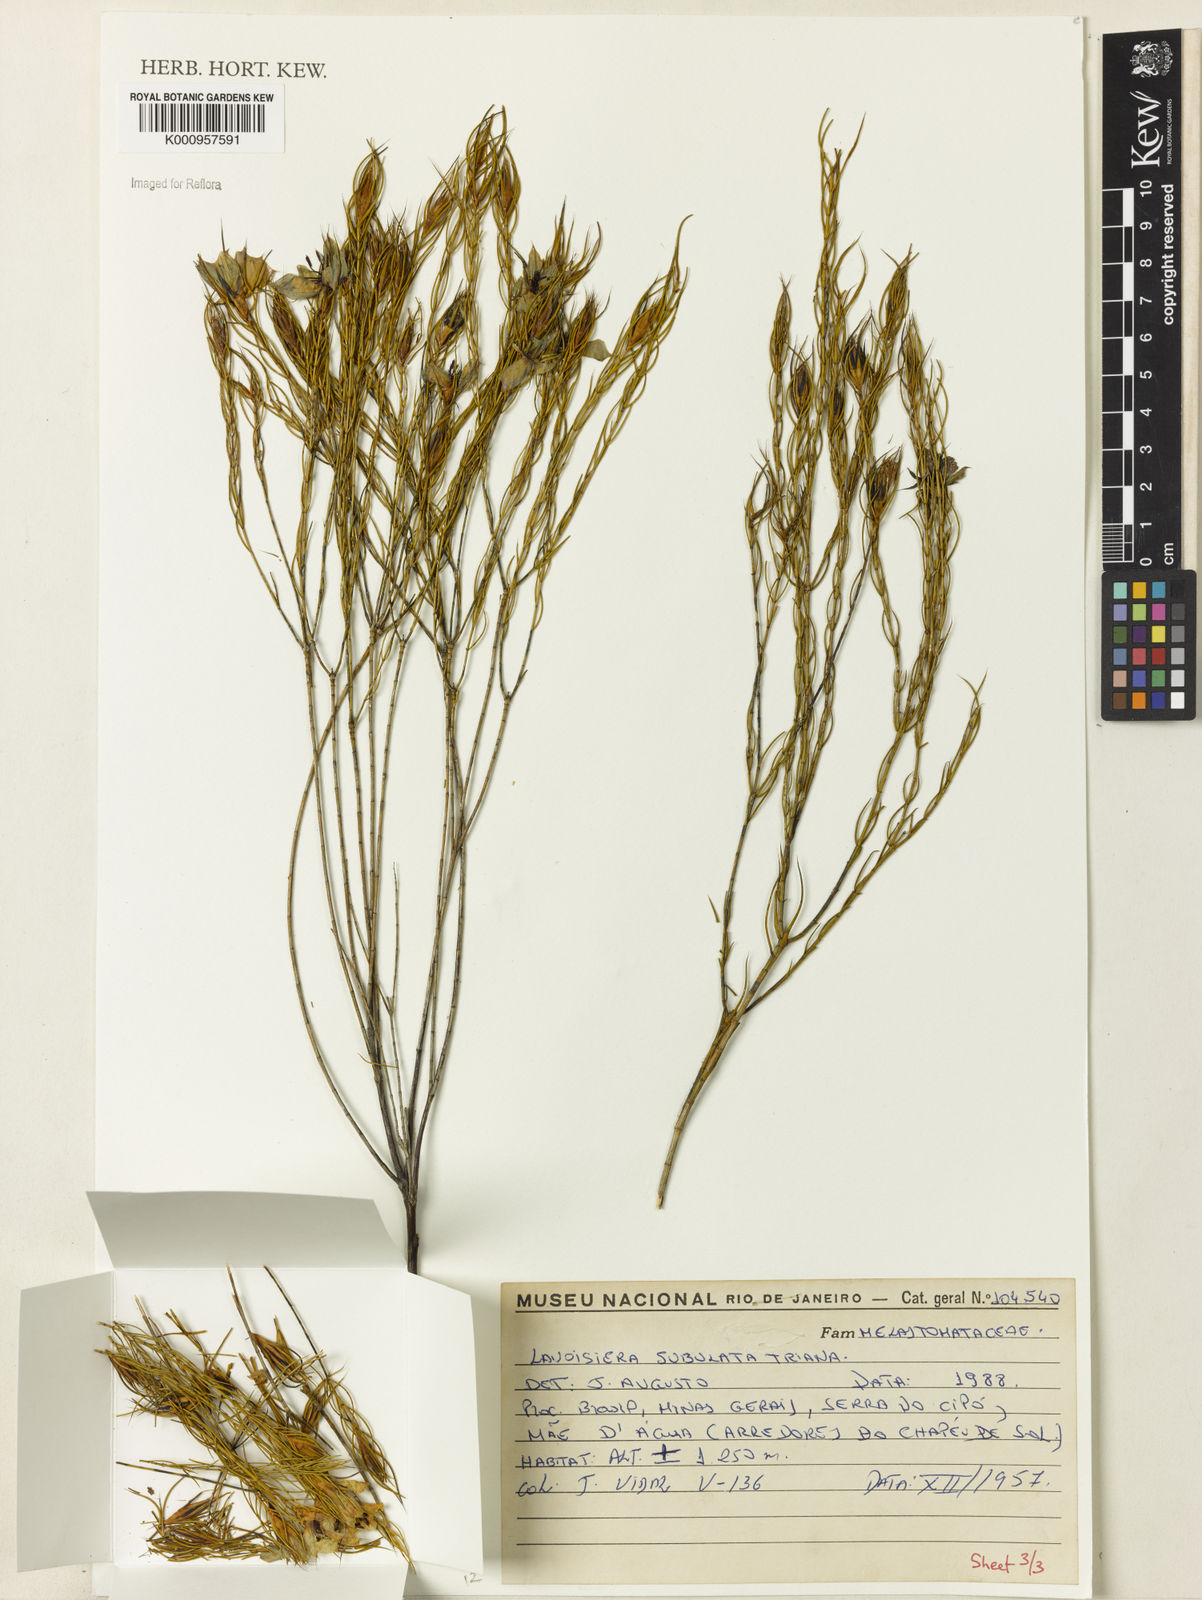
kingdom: Plantae
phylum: Tracheophyta
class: Magnoliopsida
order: Myrtales
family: Melastomataceae
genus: Microlicia
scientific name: Microlicia subulata
